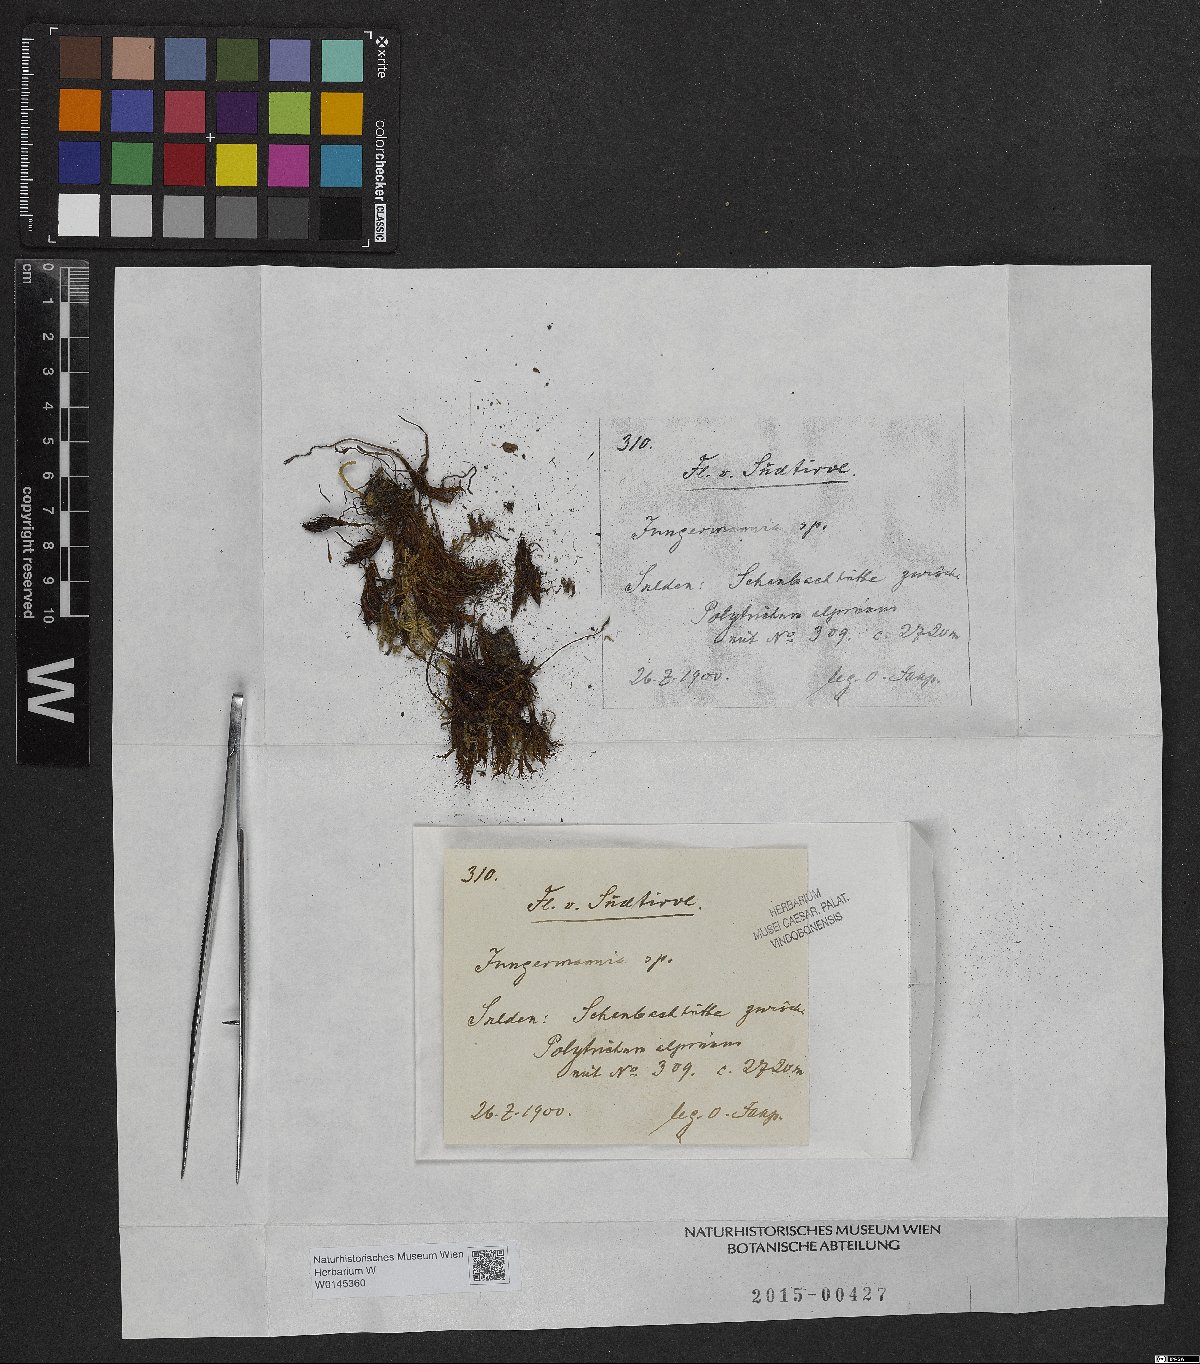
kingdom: Plantae
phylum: Marchantiophyta
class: Jungermanniopsida
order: Jungermanniales
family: Jungermanniaceae
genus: Jungermannia
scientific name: Jungermannia
